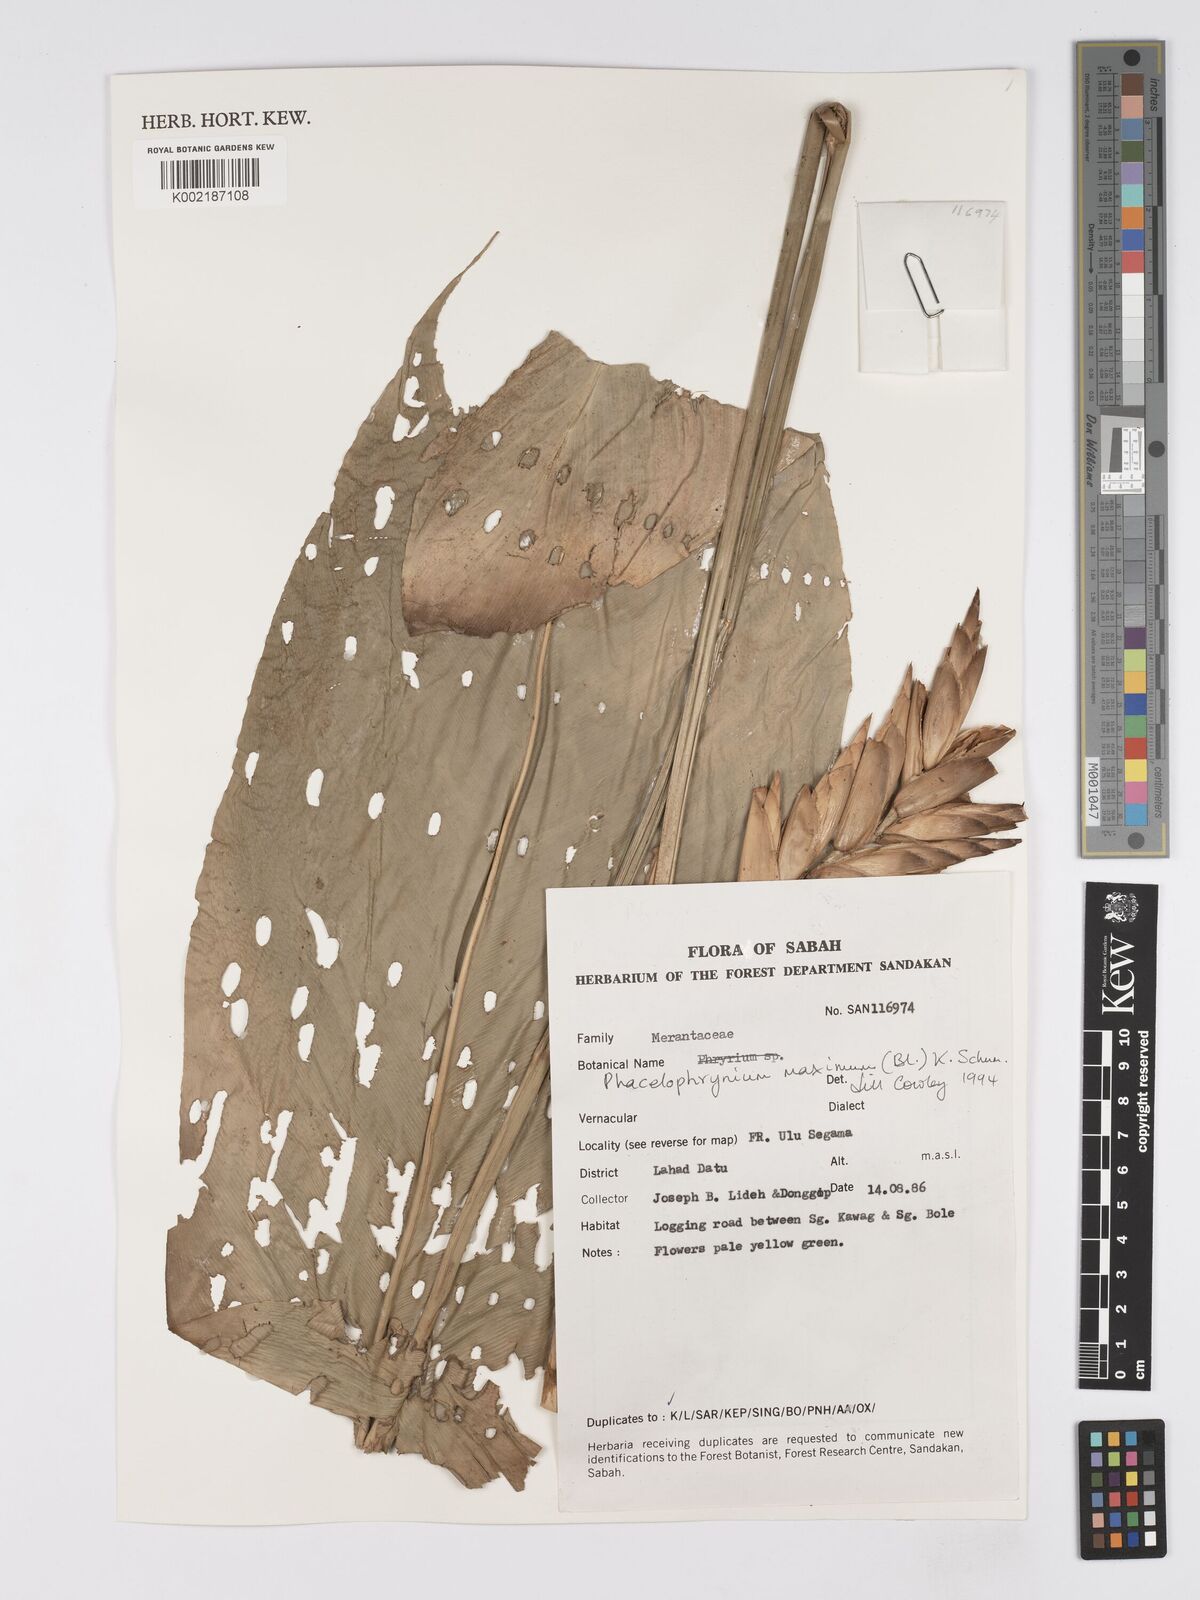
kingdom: Plantae
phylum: Tracheophyta
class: Liliopsida
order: Zingiberales
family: Marantaceae
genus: Phrynium
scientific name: Phrynium maximum
